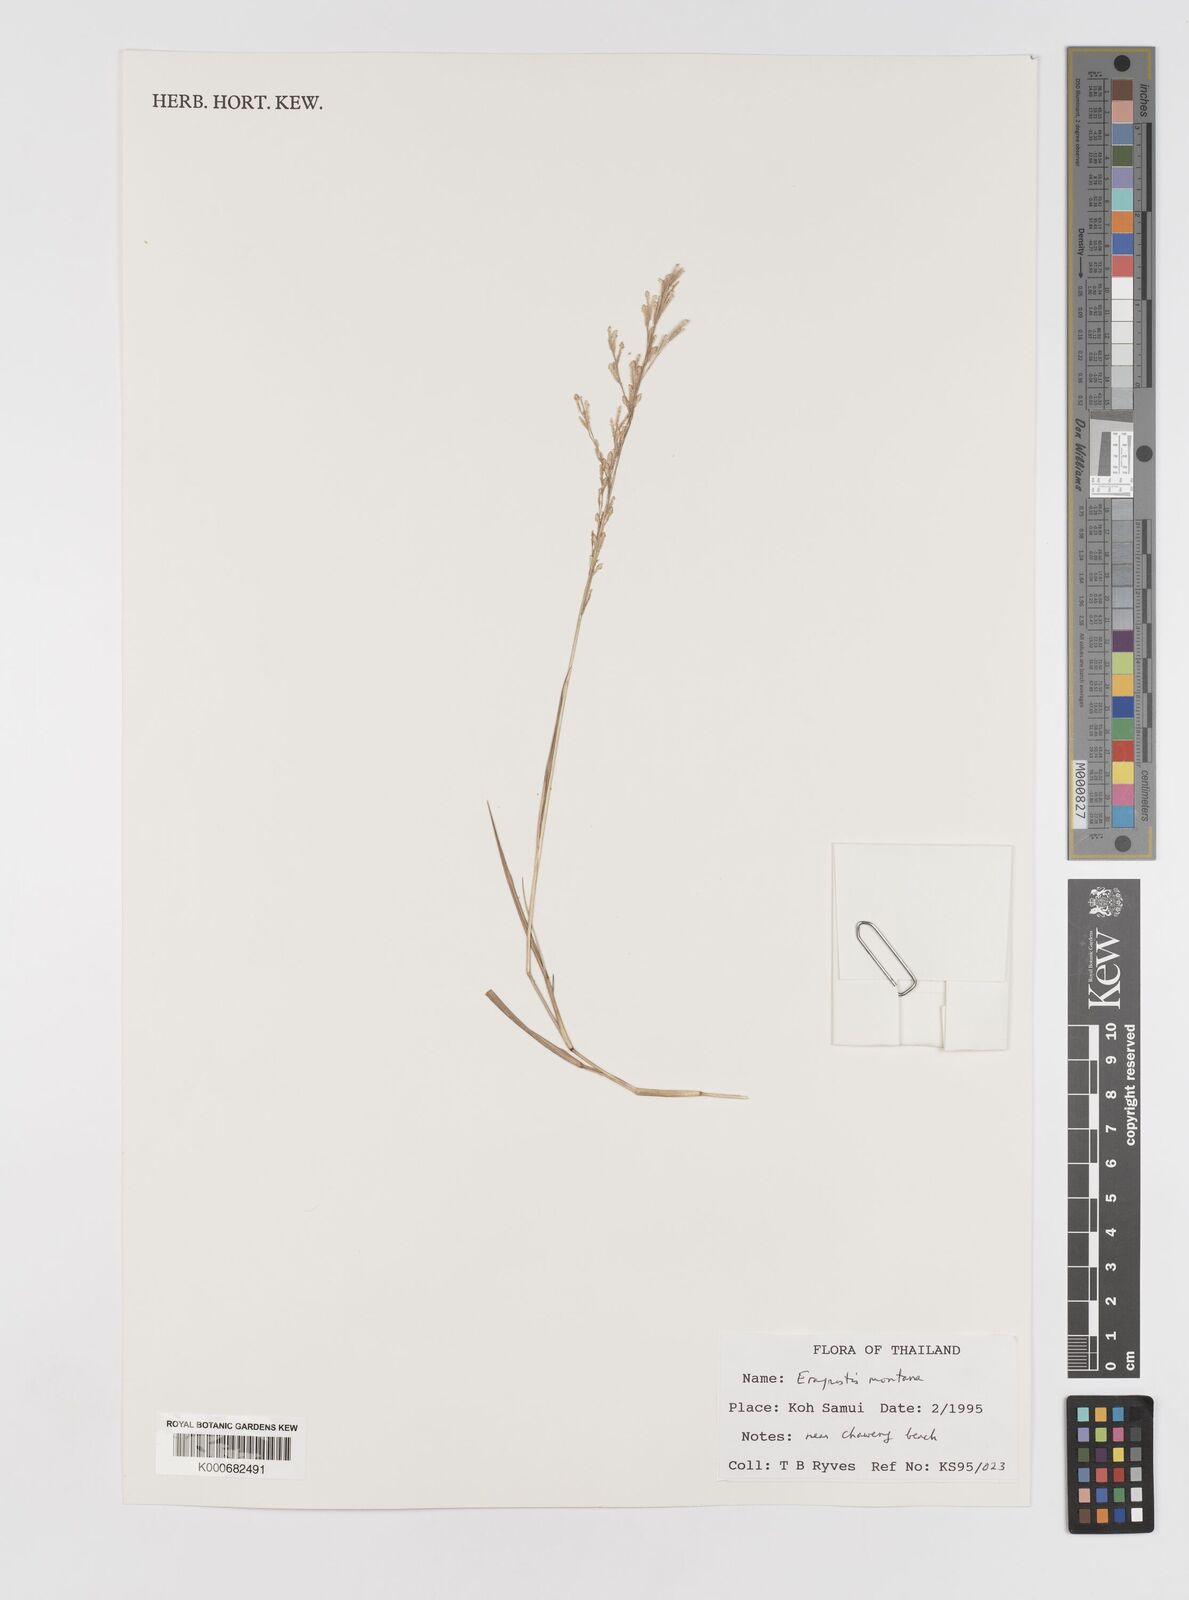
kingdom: Plantae
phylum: Tracheophyta
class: Liliopsida
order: Poales
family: Poaceae
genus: Eragrostis
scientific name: Eragrostis montana
